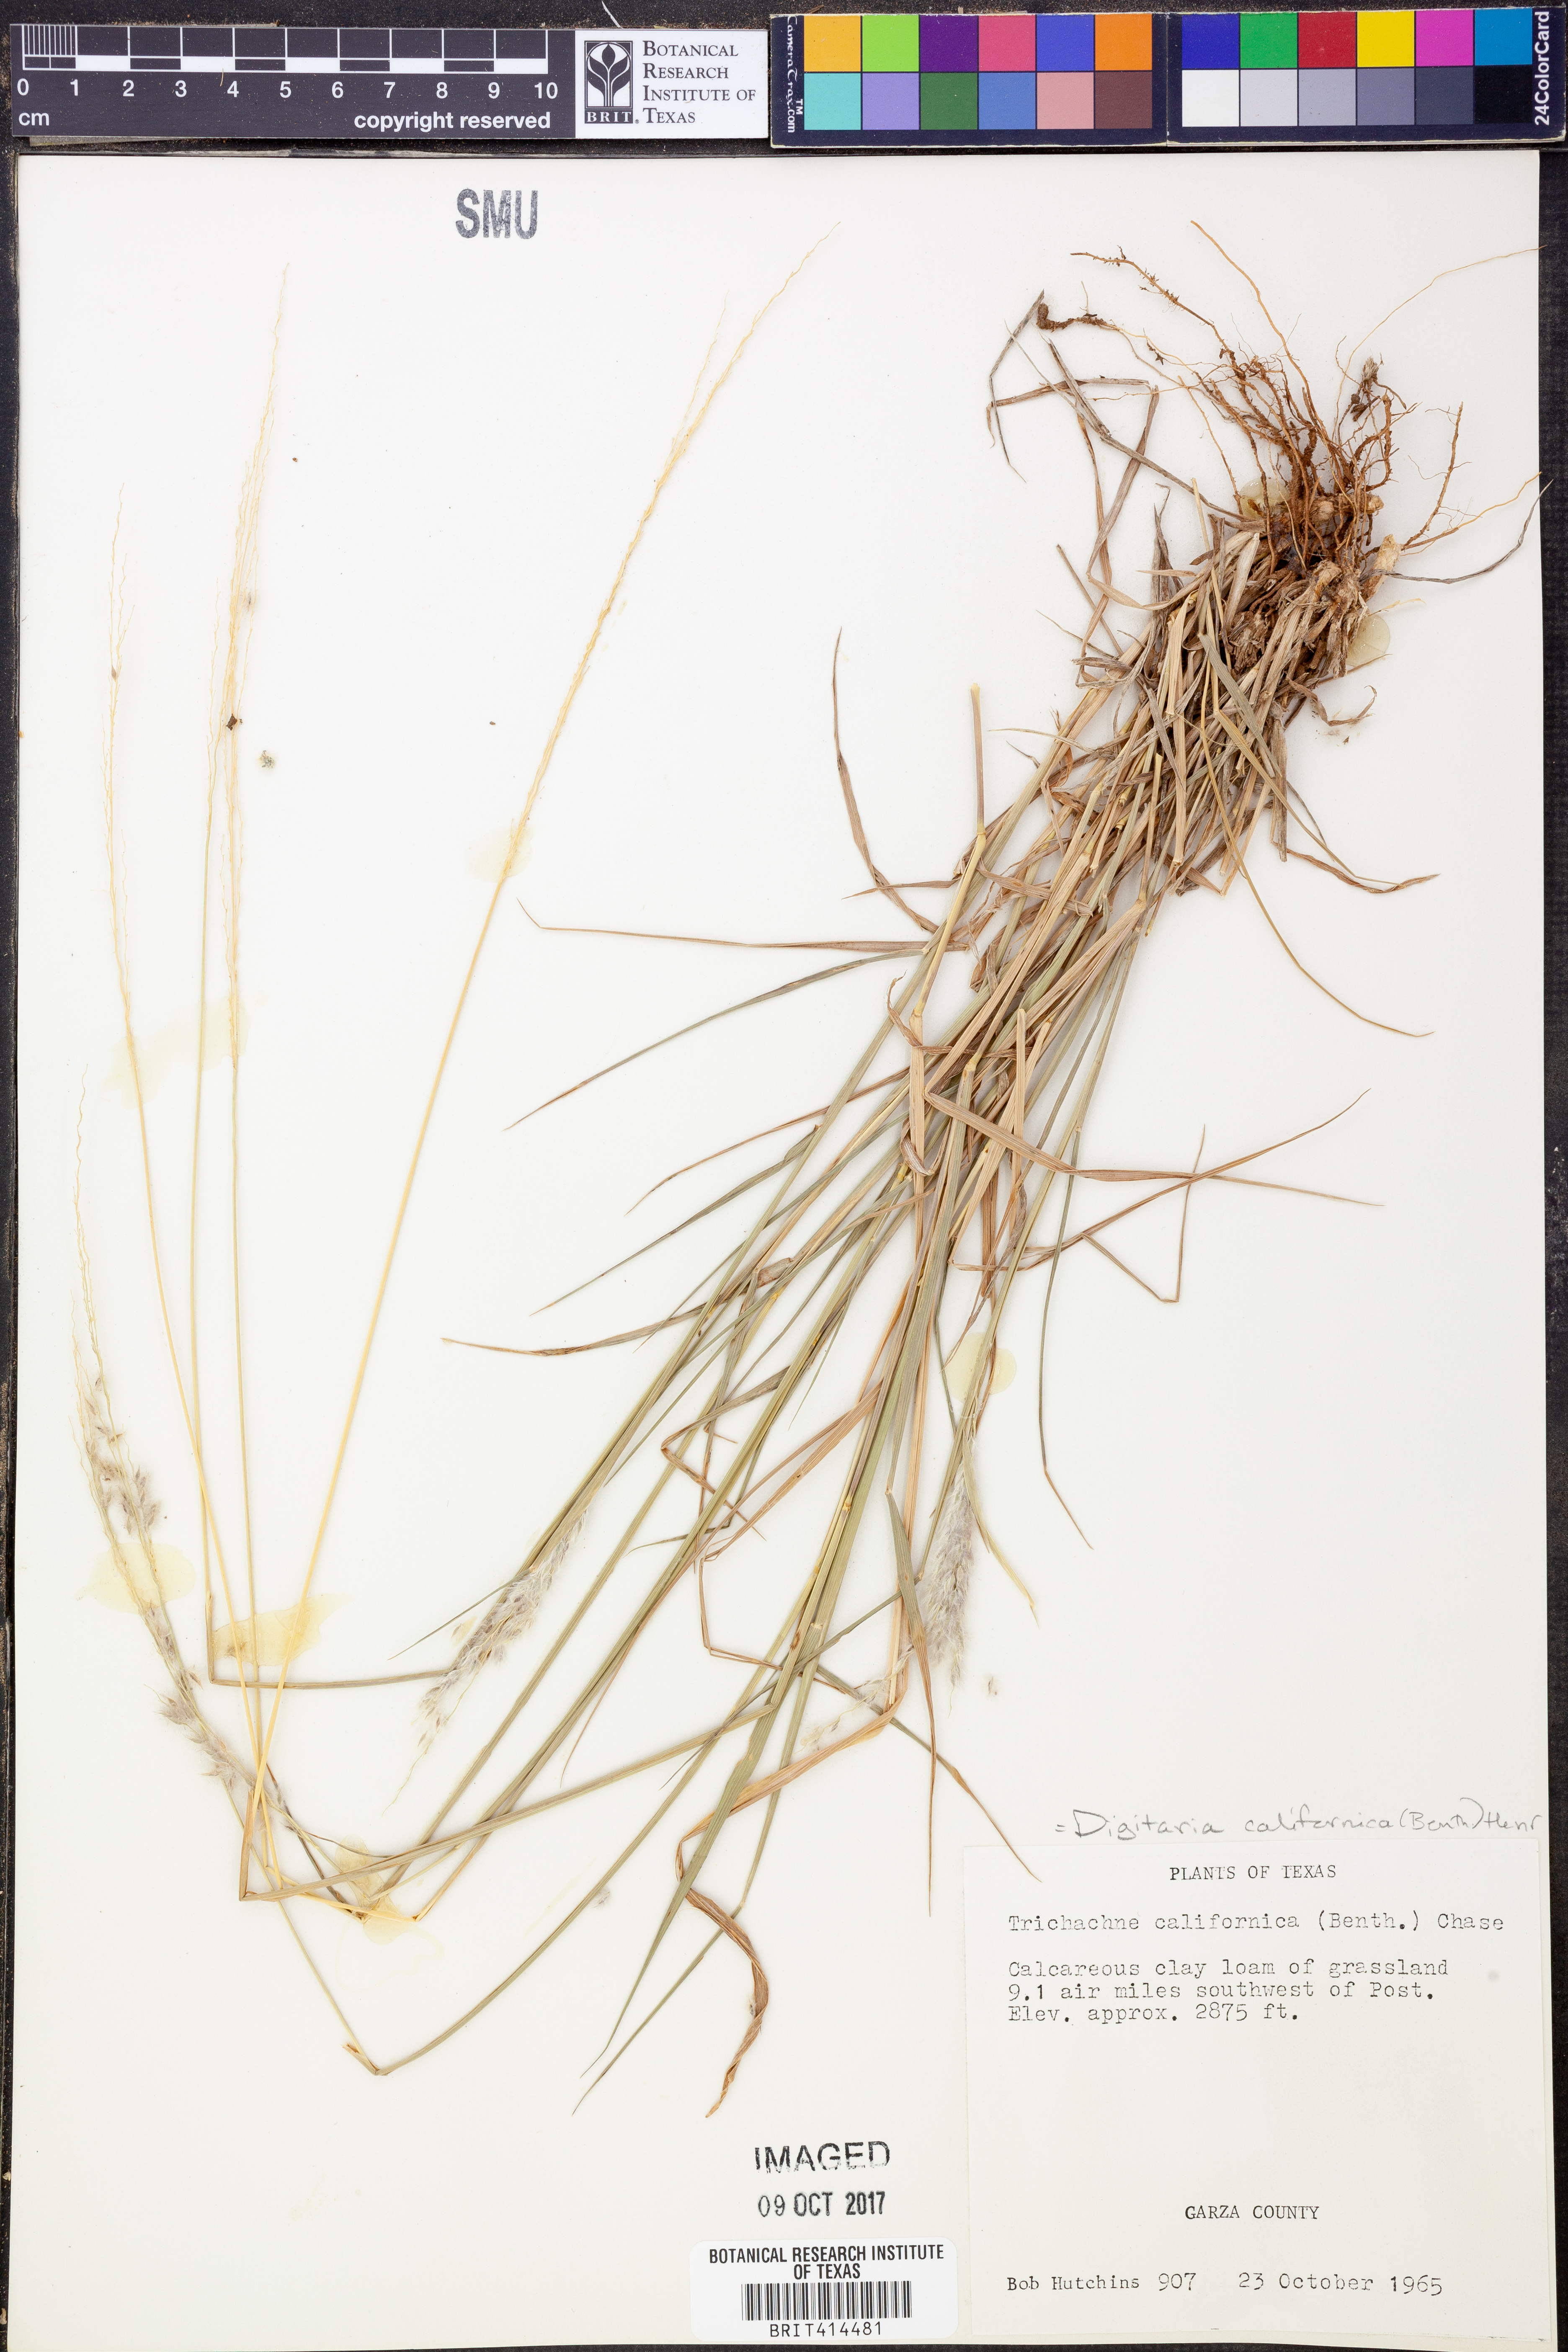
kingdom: Plantae
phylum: Tracheophyta
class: Liliopsida
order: Poales
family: Poaceae
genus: Digitaria
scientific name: Digitaria californica
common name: Arizona cottontop
